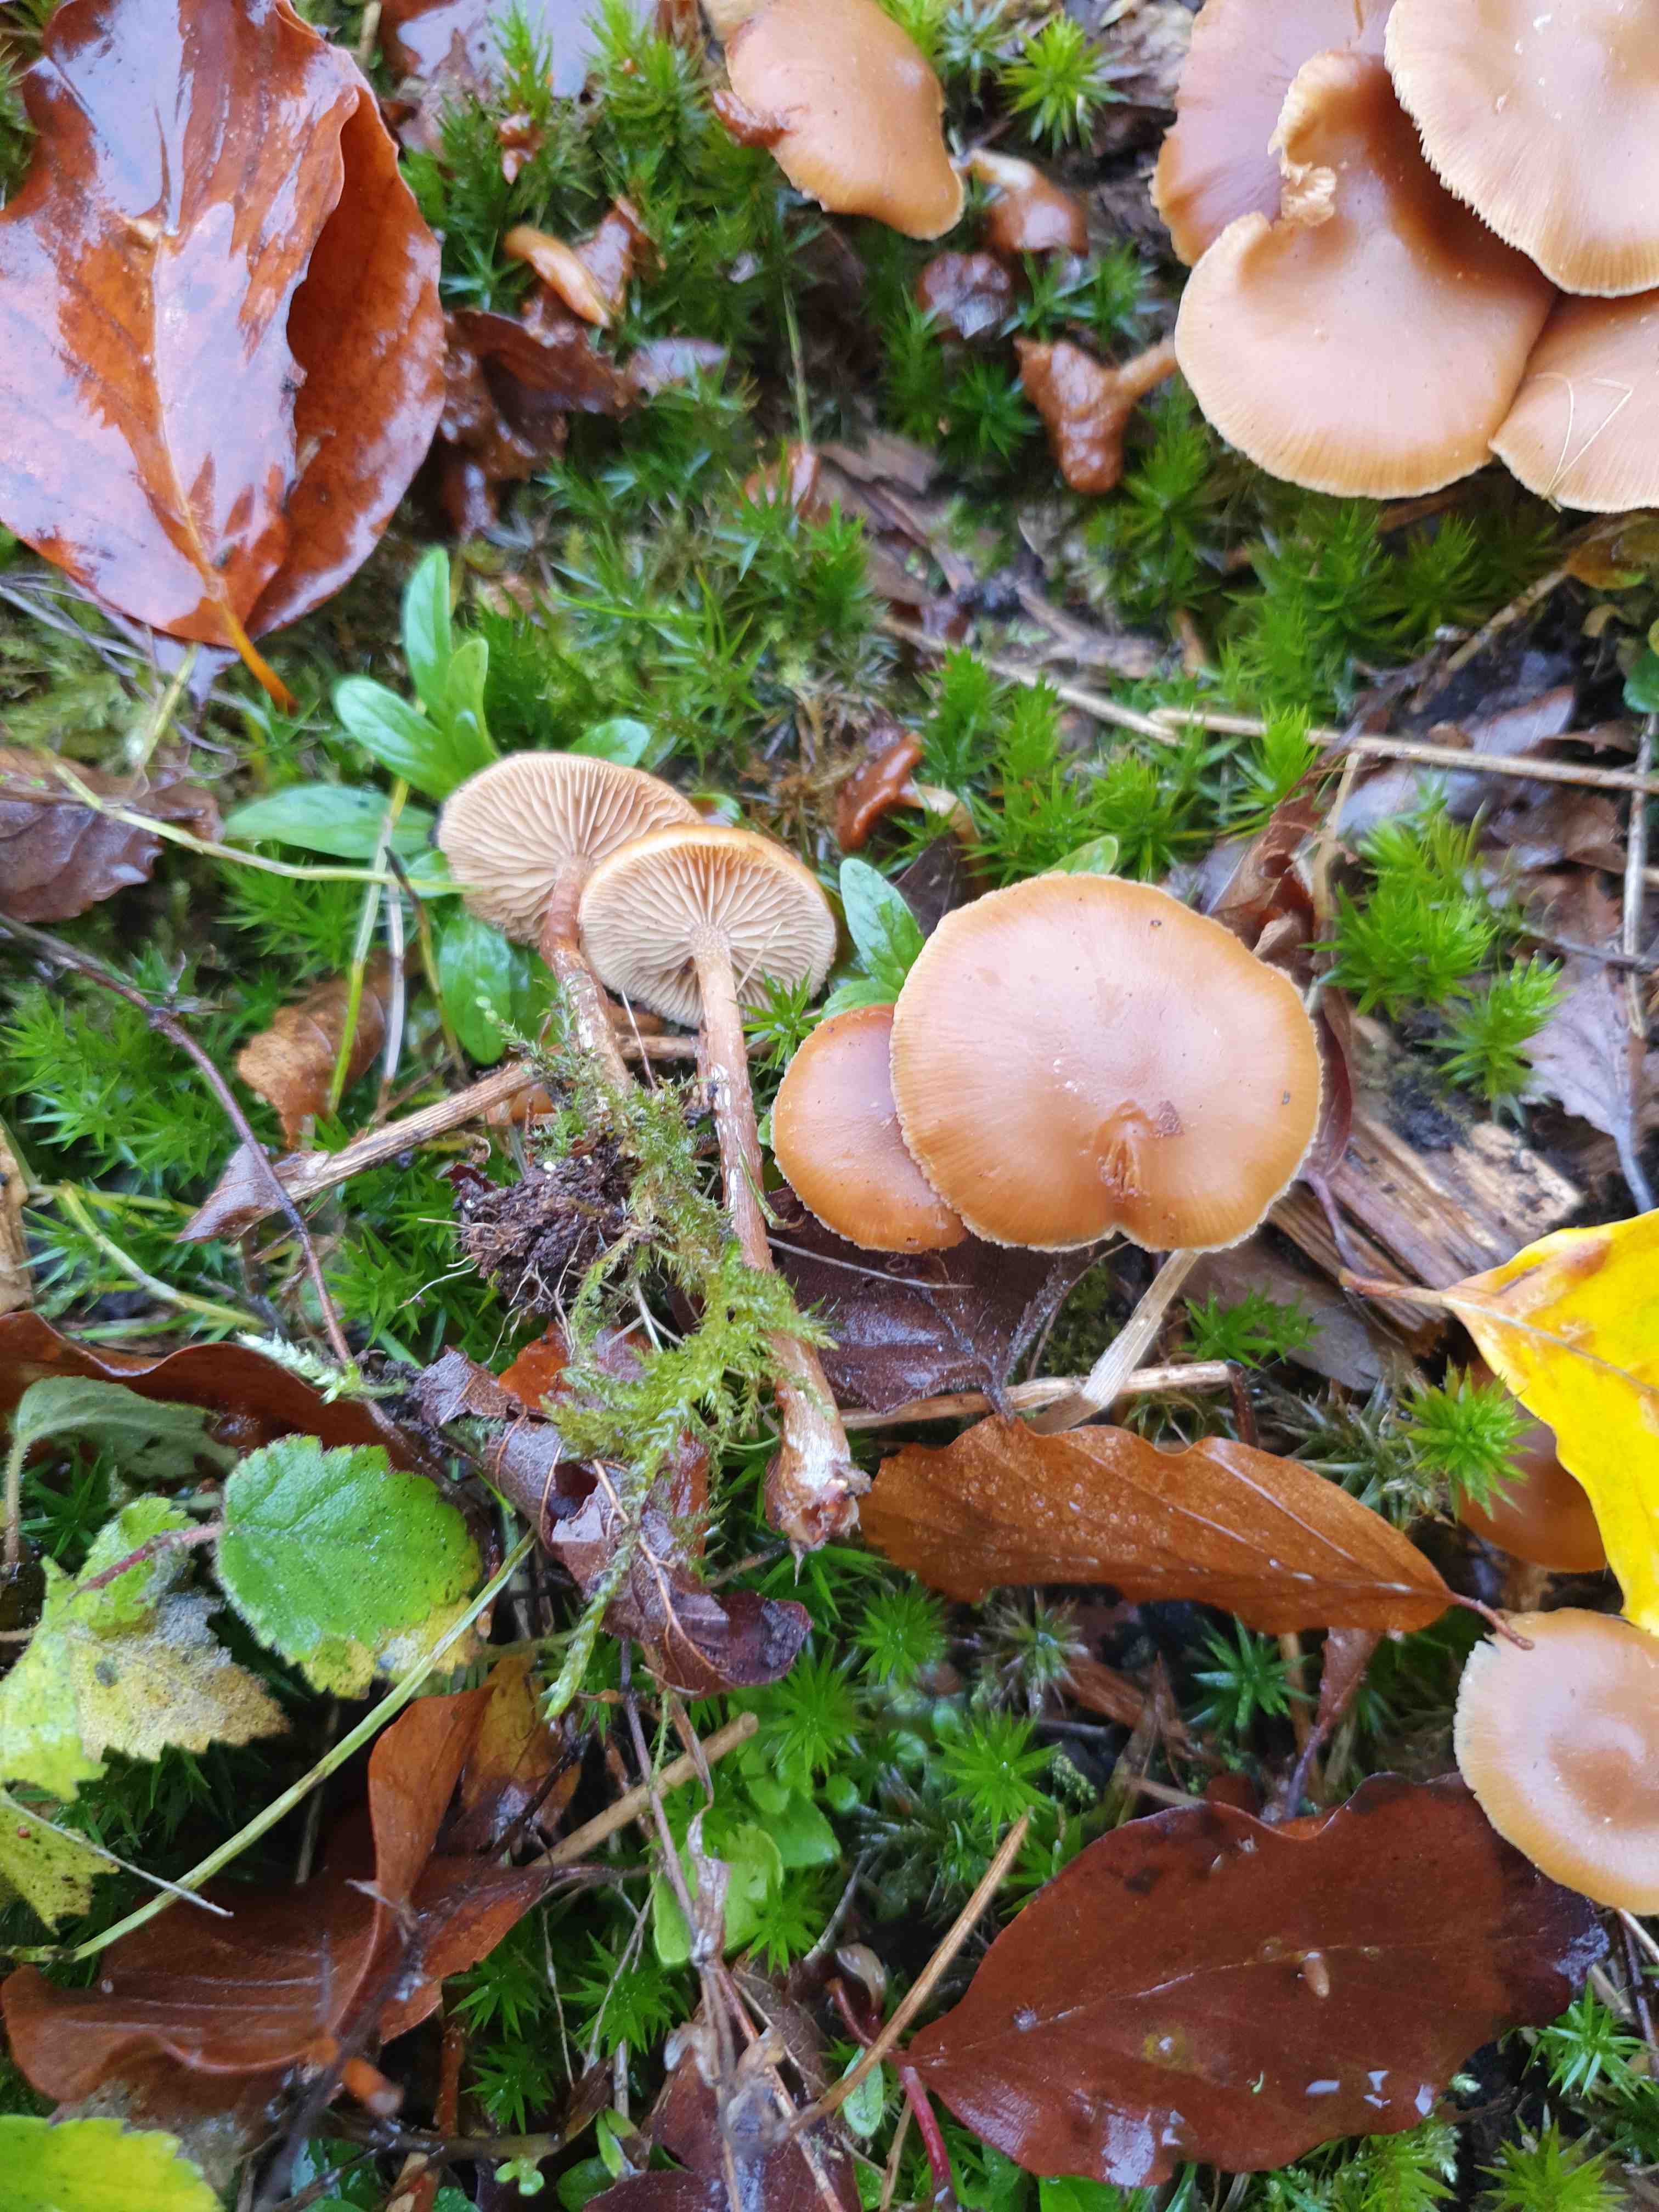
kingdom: Fungi
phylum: Basidiomycota
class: Agaricomycetes
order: Agaricales
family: Hymenogastraceae
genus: Galerina
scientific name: Galerina sideroides
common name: træflis-hjelmhat
